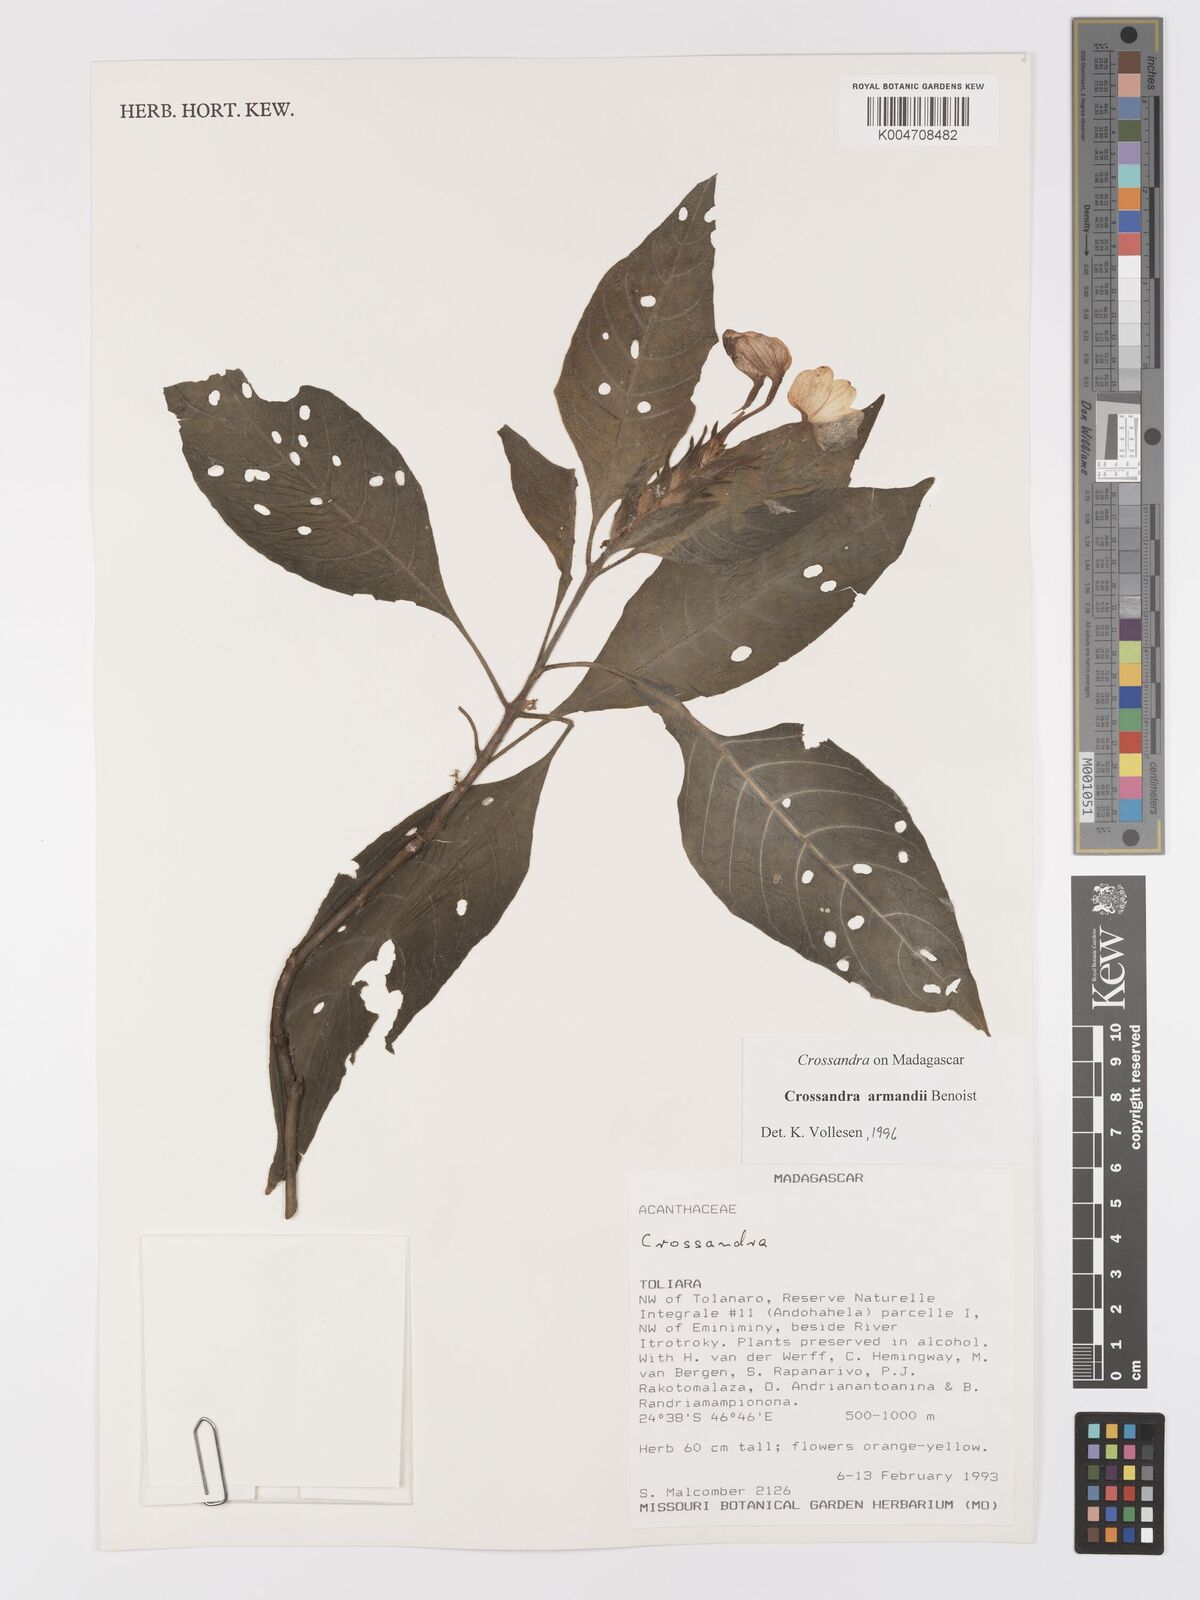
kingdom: Plantae
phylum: Tracheophyta
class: Magnoliopsida
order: Lamiales
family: Acanthaceae
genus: Crossandra
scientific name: Crossandra armandii
